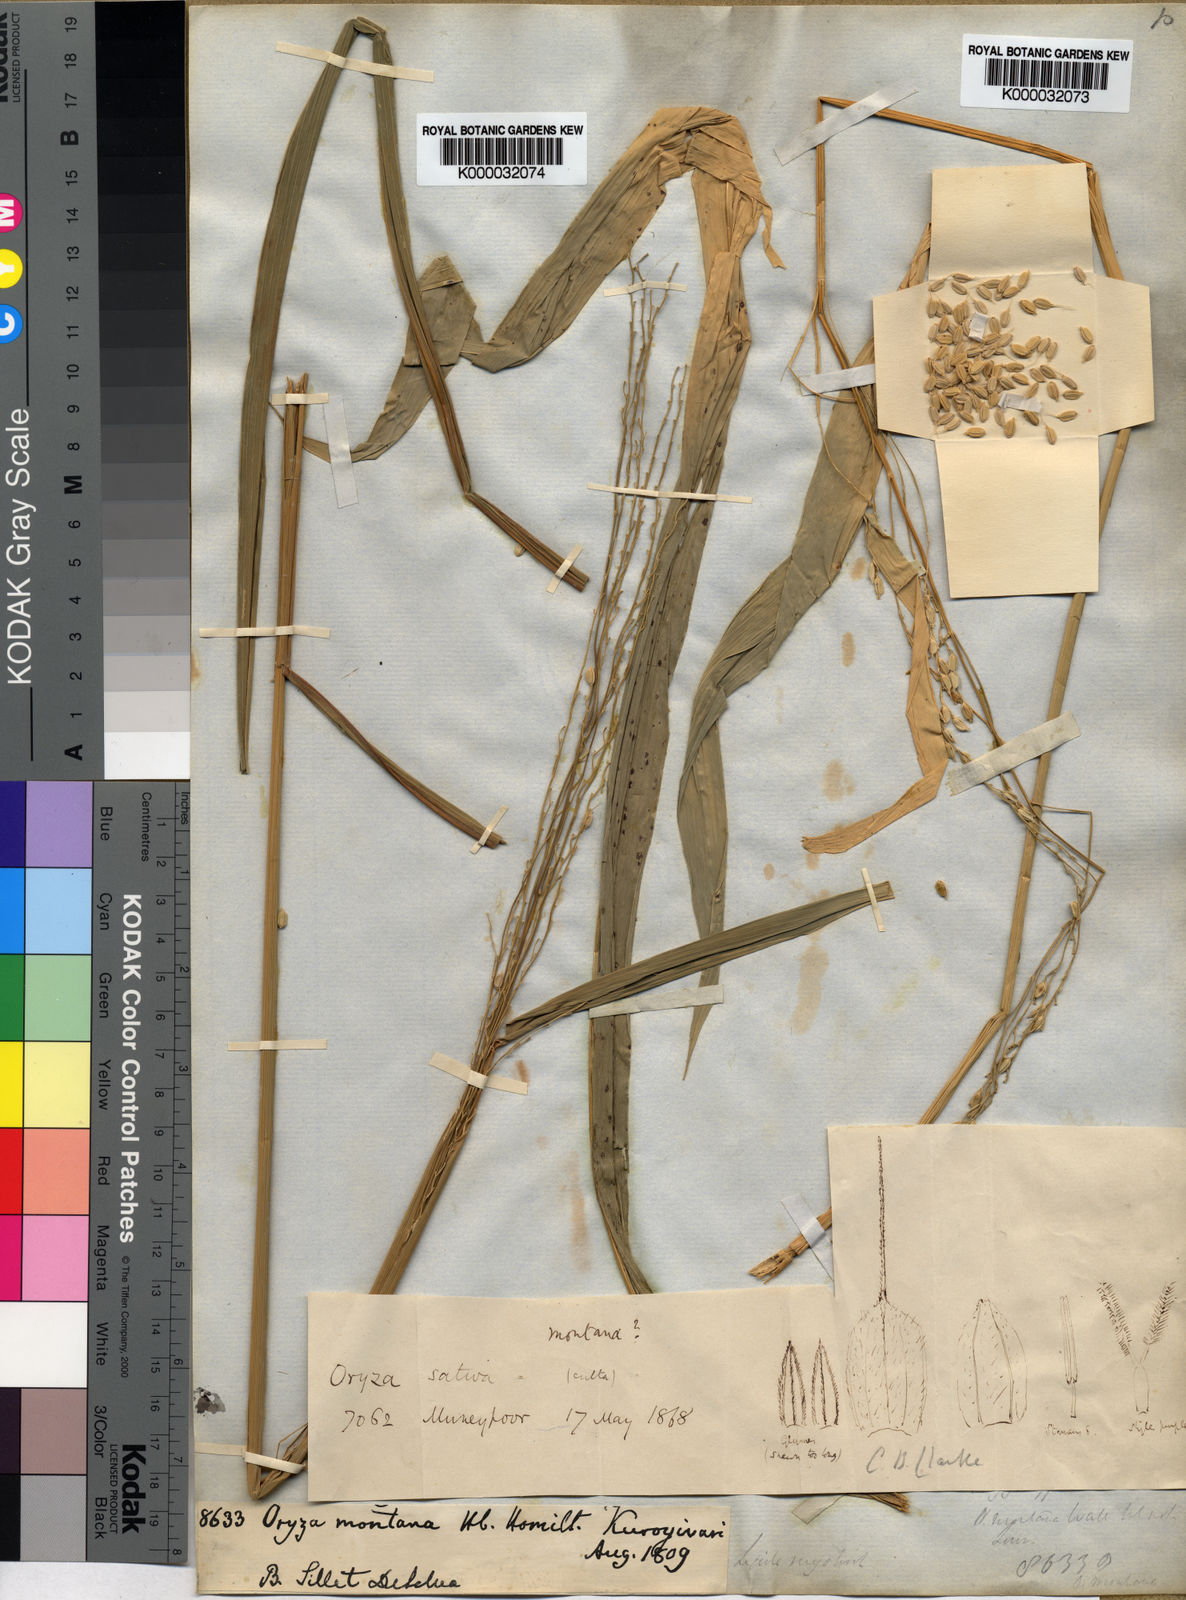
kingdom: Plantae
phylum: Tracheophyta
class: Liliopsida
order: Poales
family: Poaceae
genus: Oryza
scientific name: Oryza
